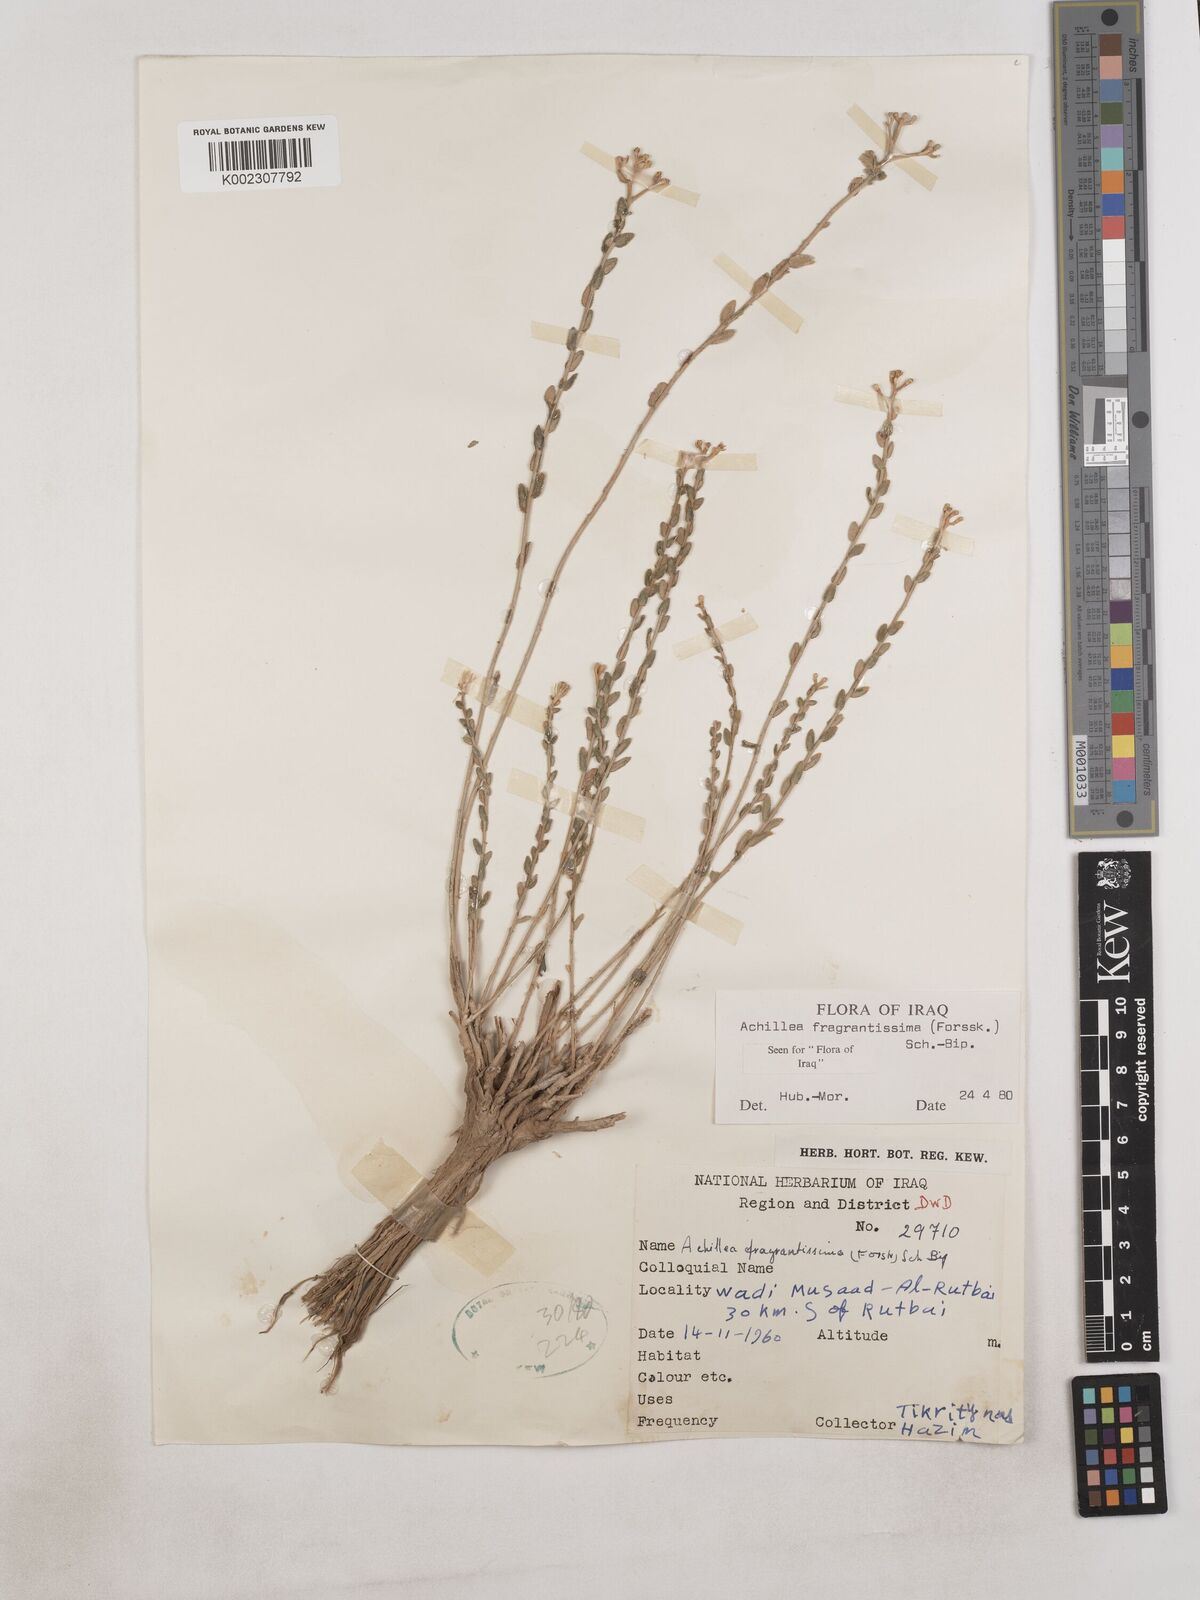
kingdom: Plantae
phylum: Tracheophyta
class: Magnoliopsida
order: Asterales
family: Asteraceae
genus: Achillea
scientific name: Achillea fragrantissima
